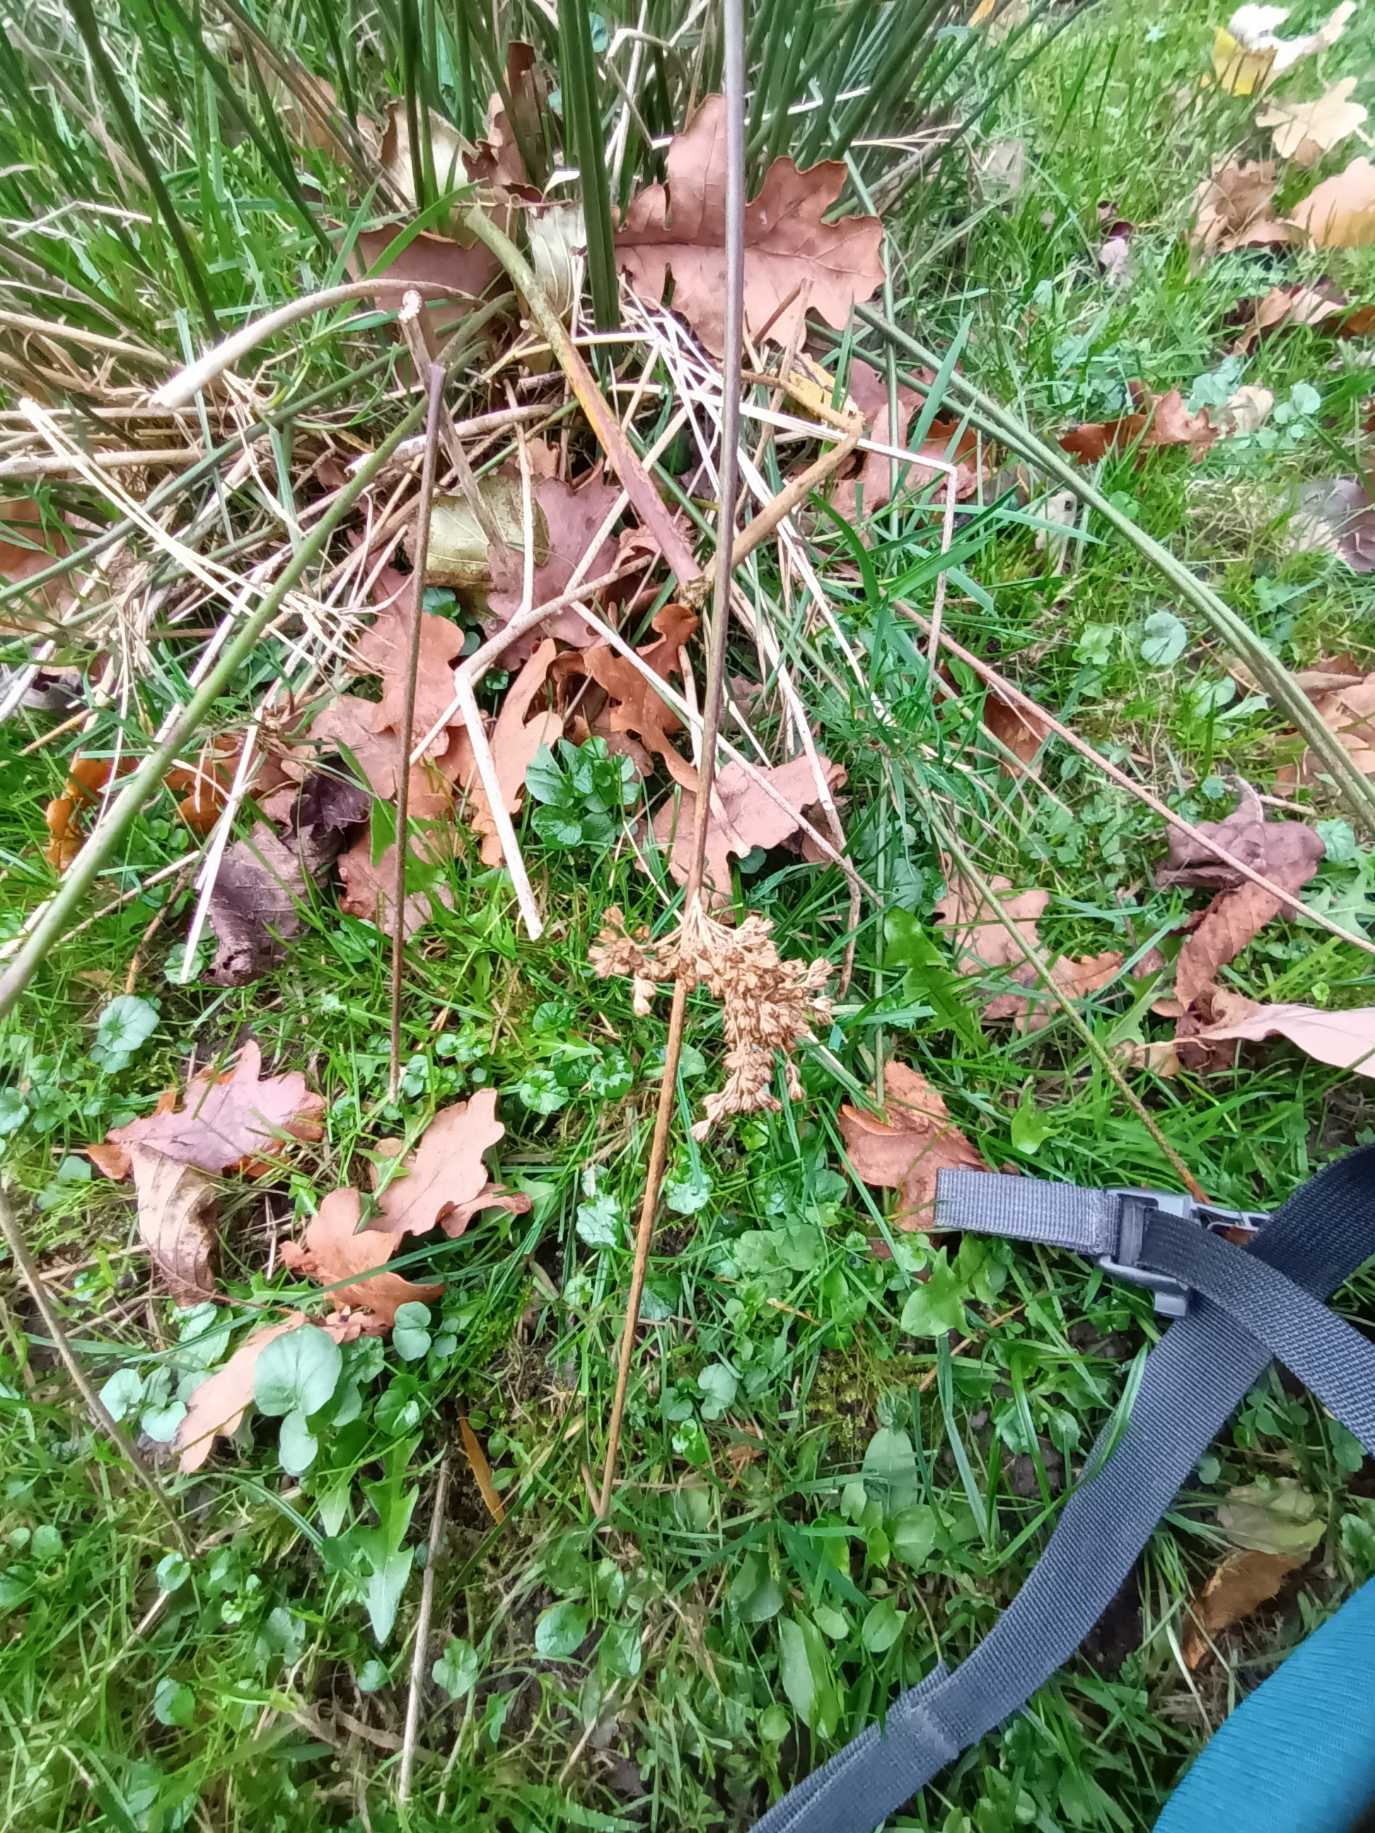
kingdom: Plantae
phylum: Tracheophyta
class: Liliopsida
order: Poales
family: Juncaceae
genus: Juncus
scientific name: Juncus effusus
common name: Lyse-siv
